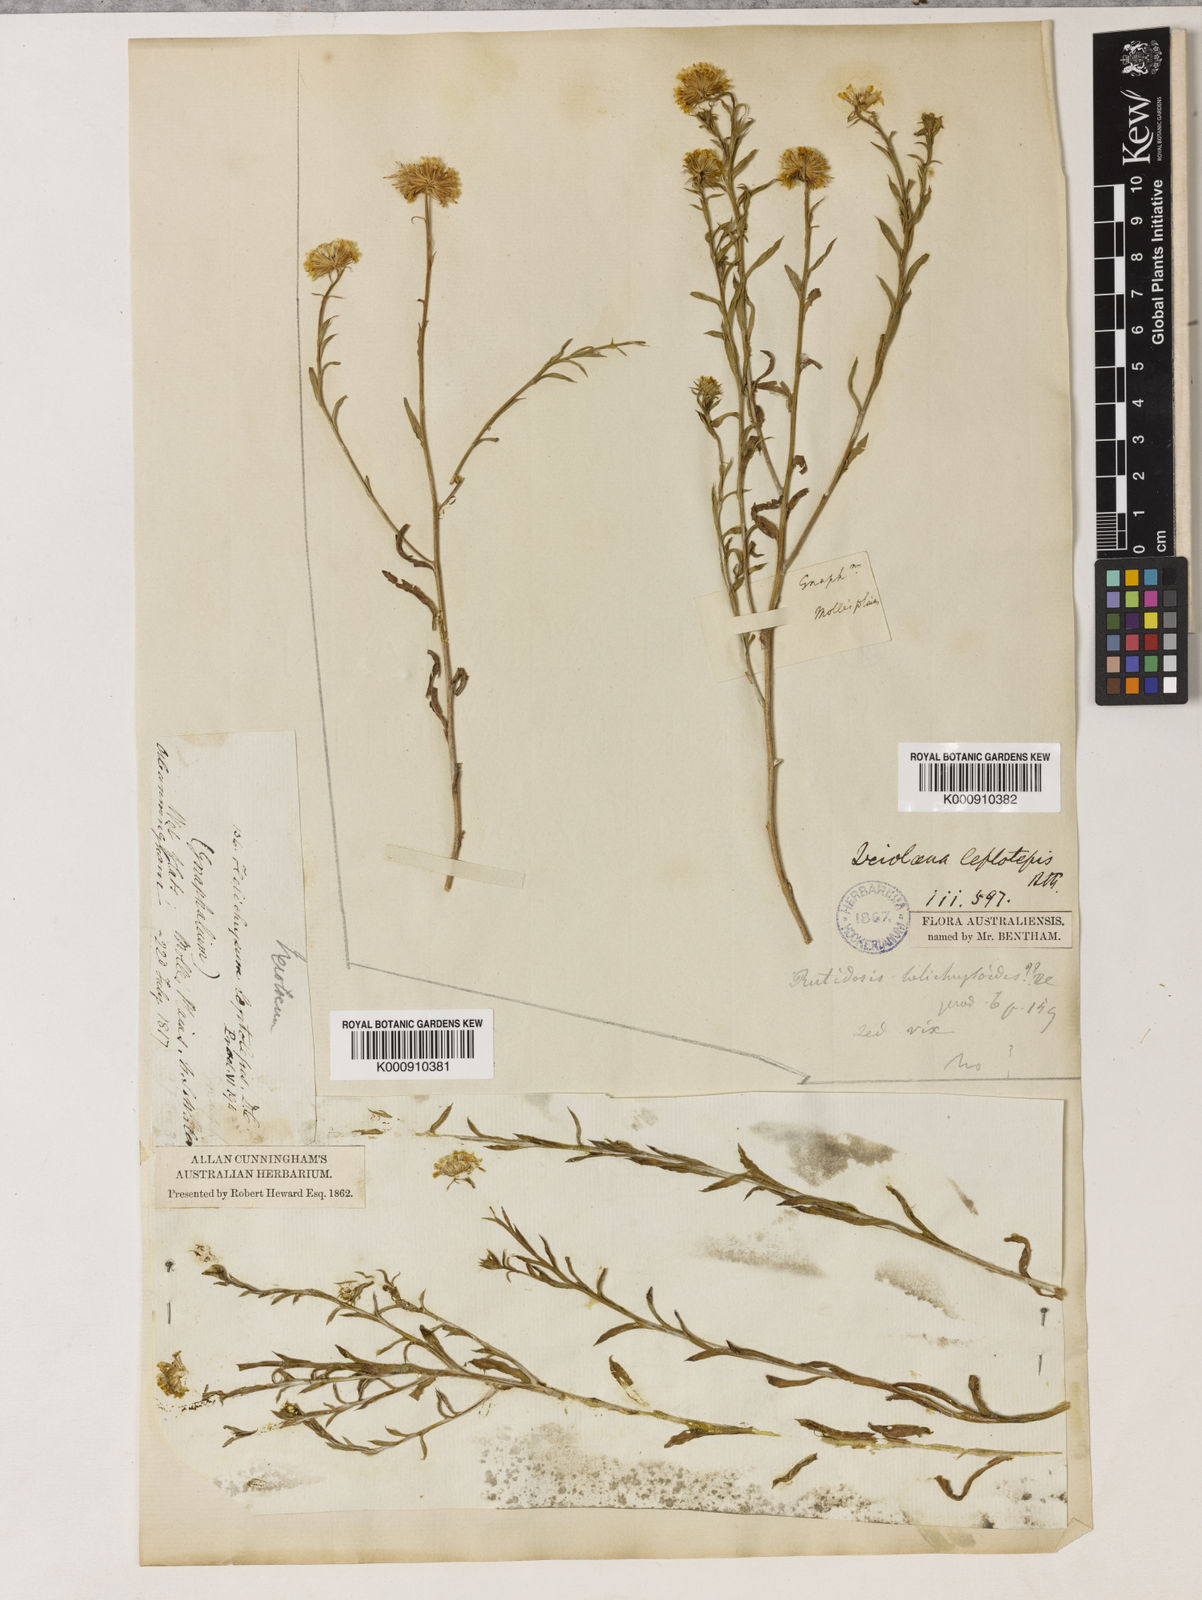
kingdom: Plantae
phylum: Tracheophyta
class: Magnoliopsida
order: Asterales
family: Asteraceae
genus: Leiocarpa
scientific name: Leiocarpa leptolepis
